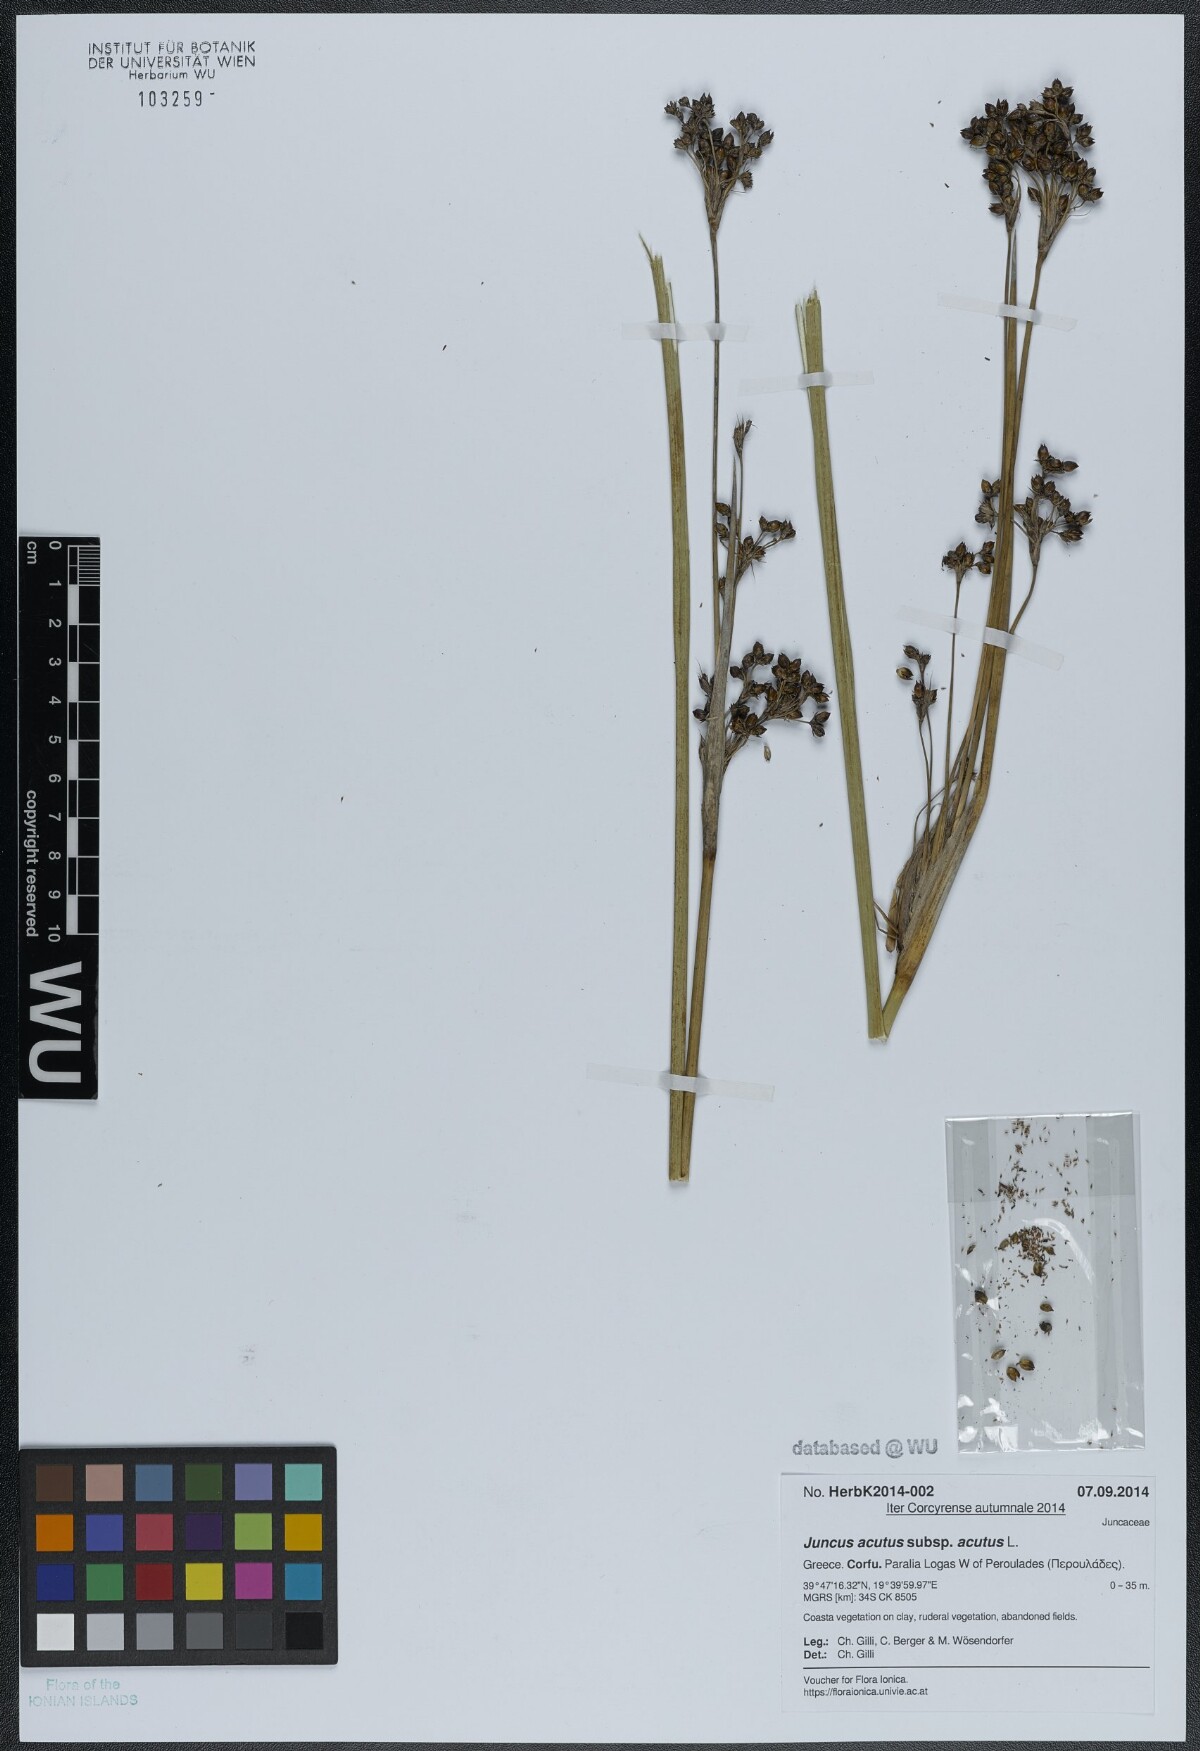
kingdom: Plantae
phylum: Tracheophyta
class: Liliopsida
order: Poales
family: Juncaceae
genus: Juncus
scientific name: Juncus acutus
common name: Sharp rush
